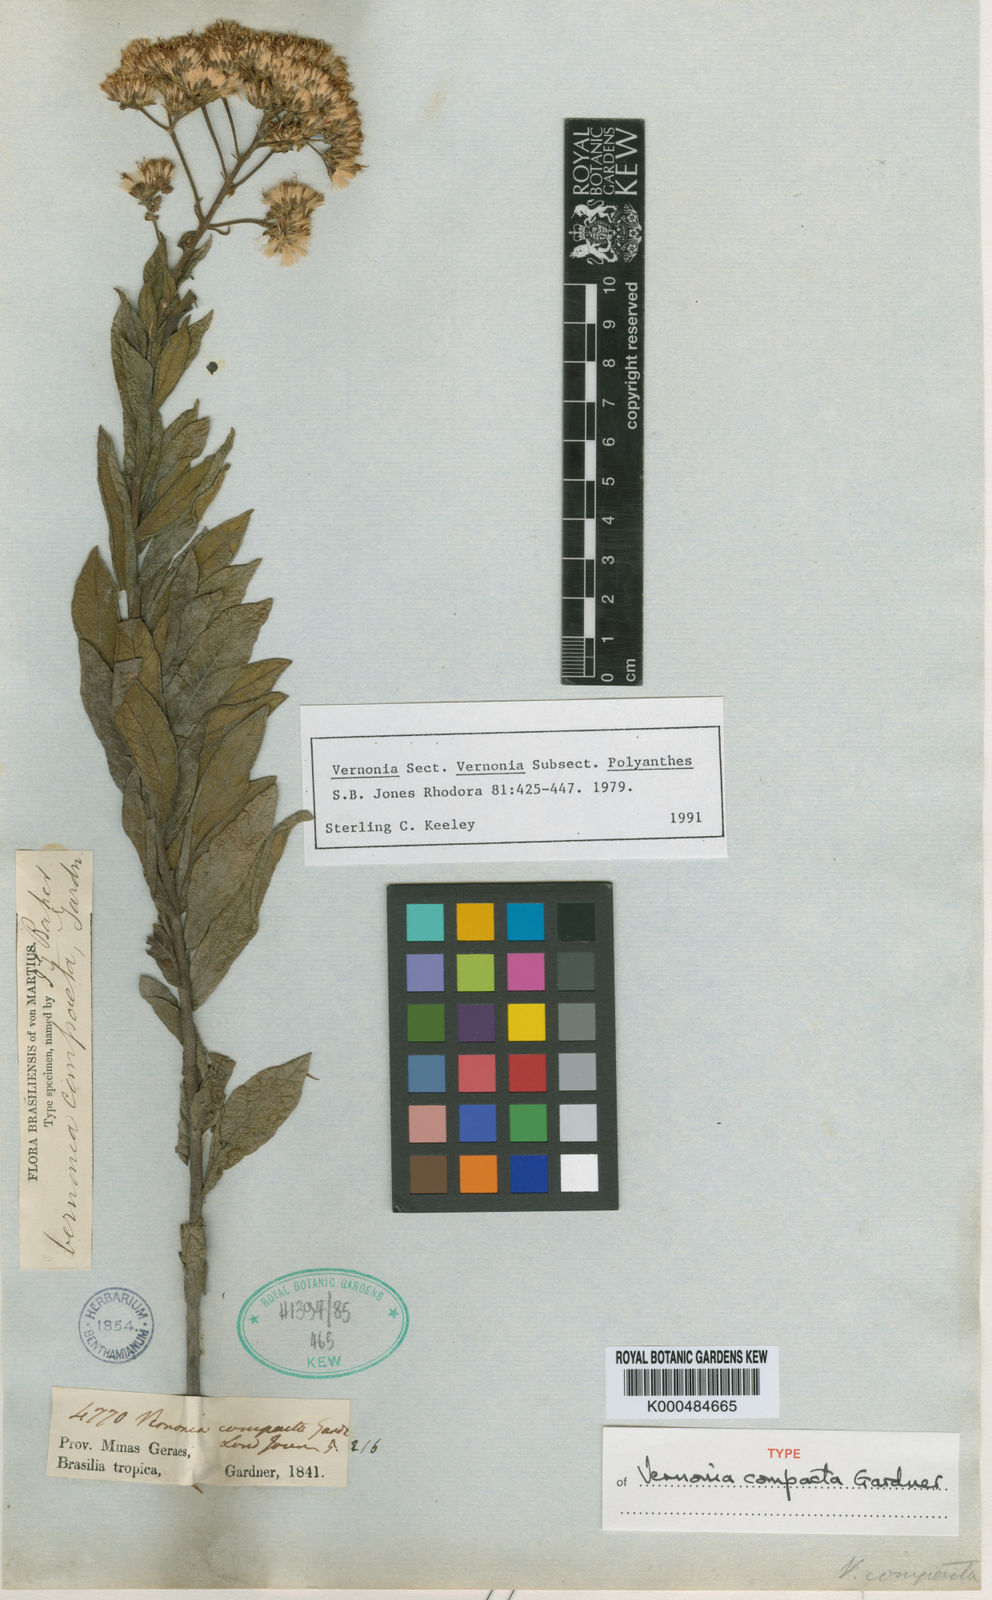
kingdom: Plantae
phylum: Tracheophyta
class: Magnoliopsida
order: Asterales
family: Asteraceae
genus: Vernonanthura
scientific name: Vernonanthura polyanthes
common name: Tree aster
